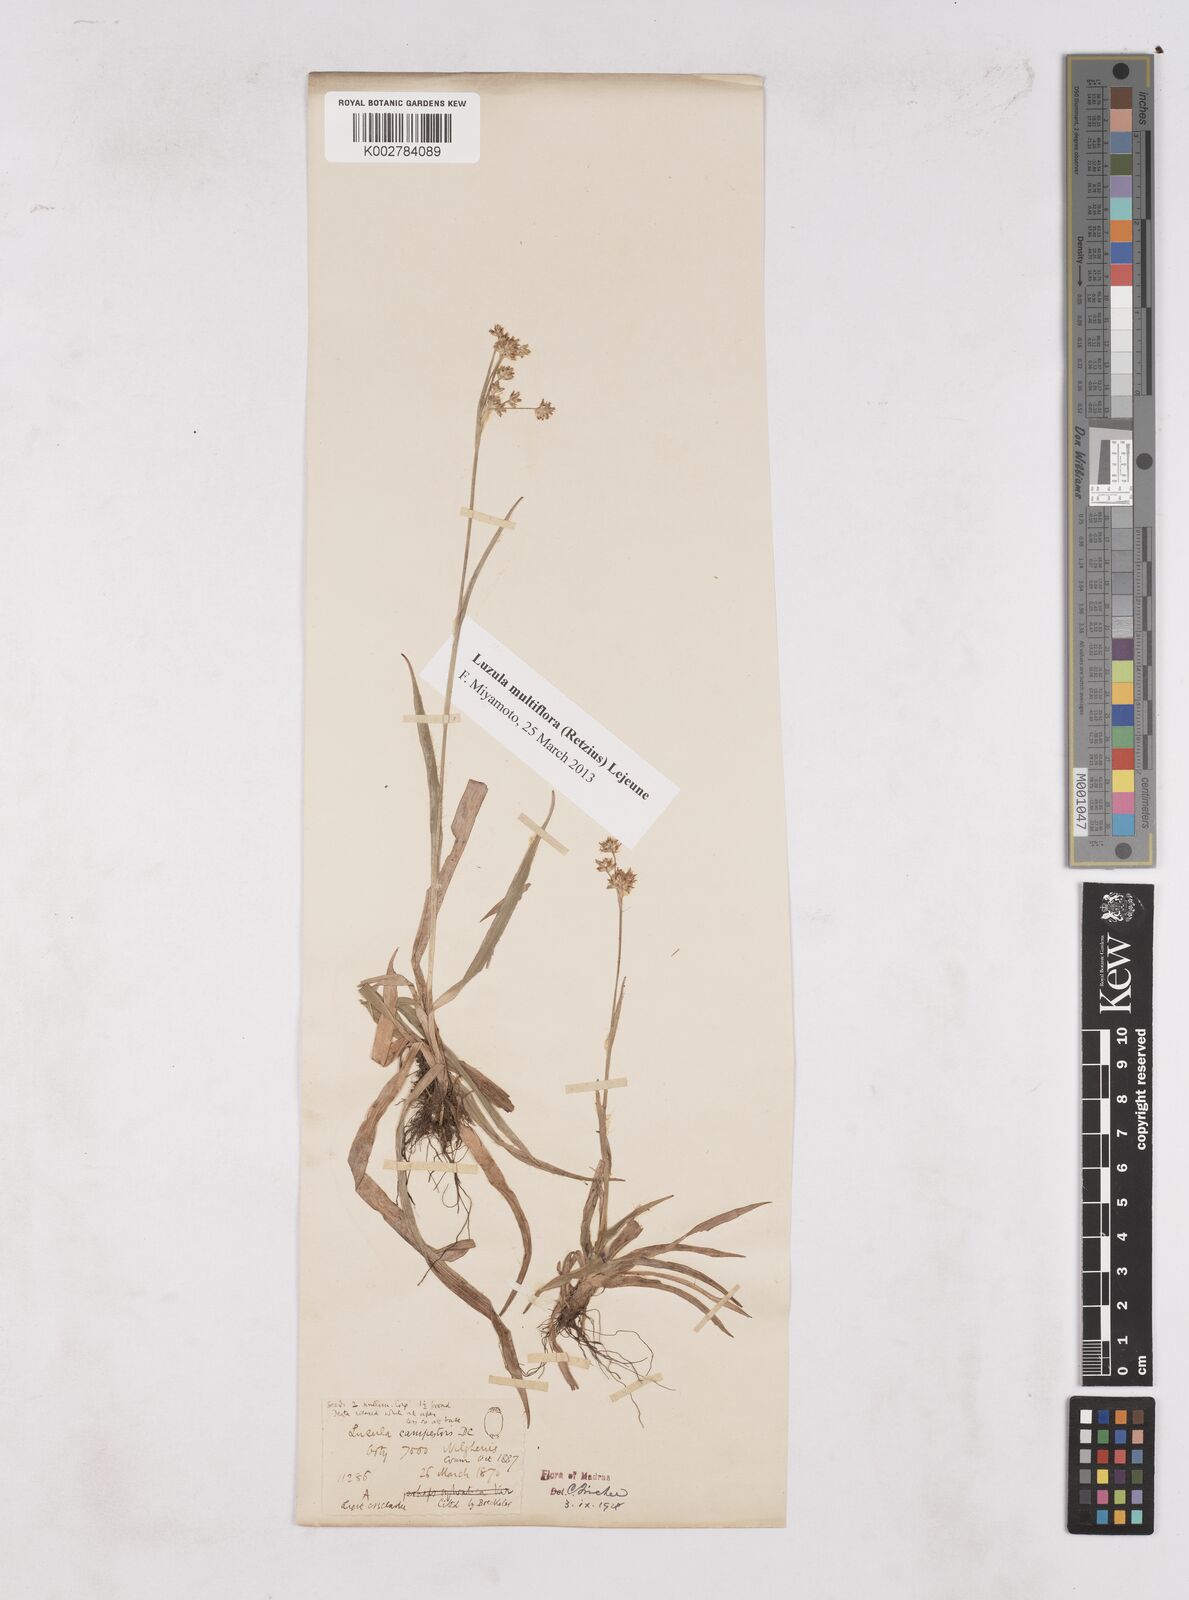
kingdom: Plantae
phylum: Tracheophyta
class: Liliopsida
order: Poales
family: Juncaceae
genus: Luzula
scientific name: Luzula campestris
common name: Field wood-rush
